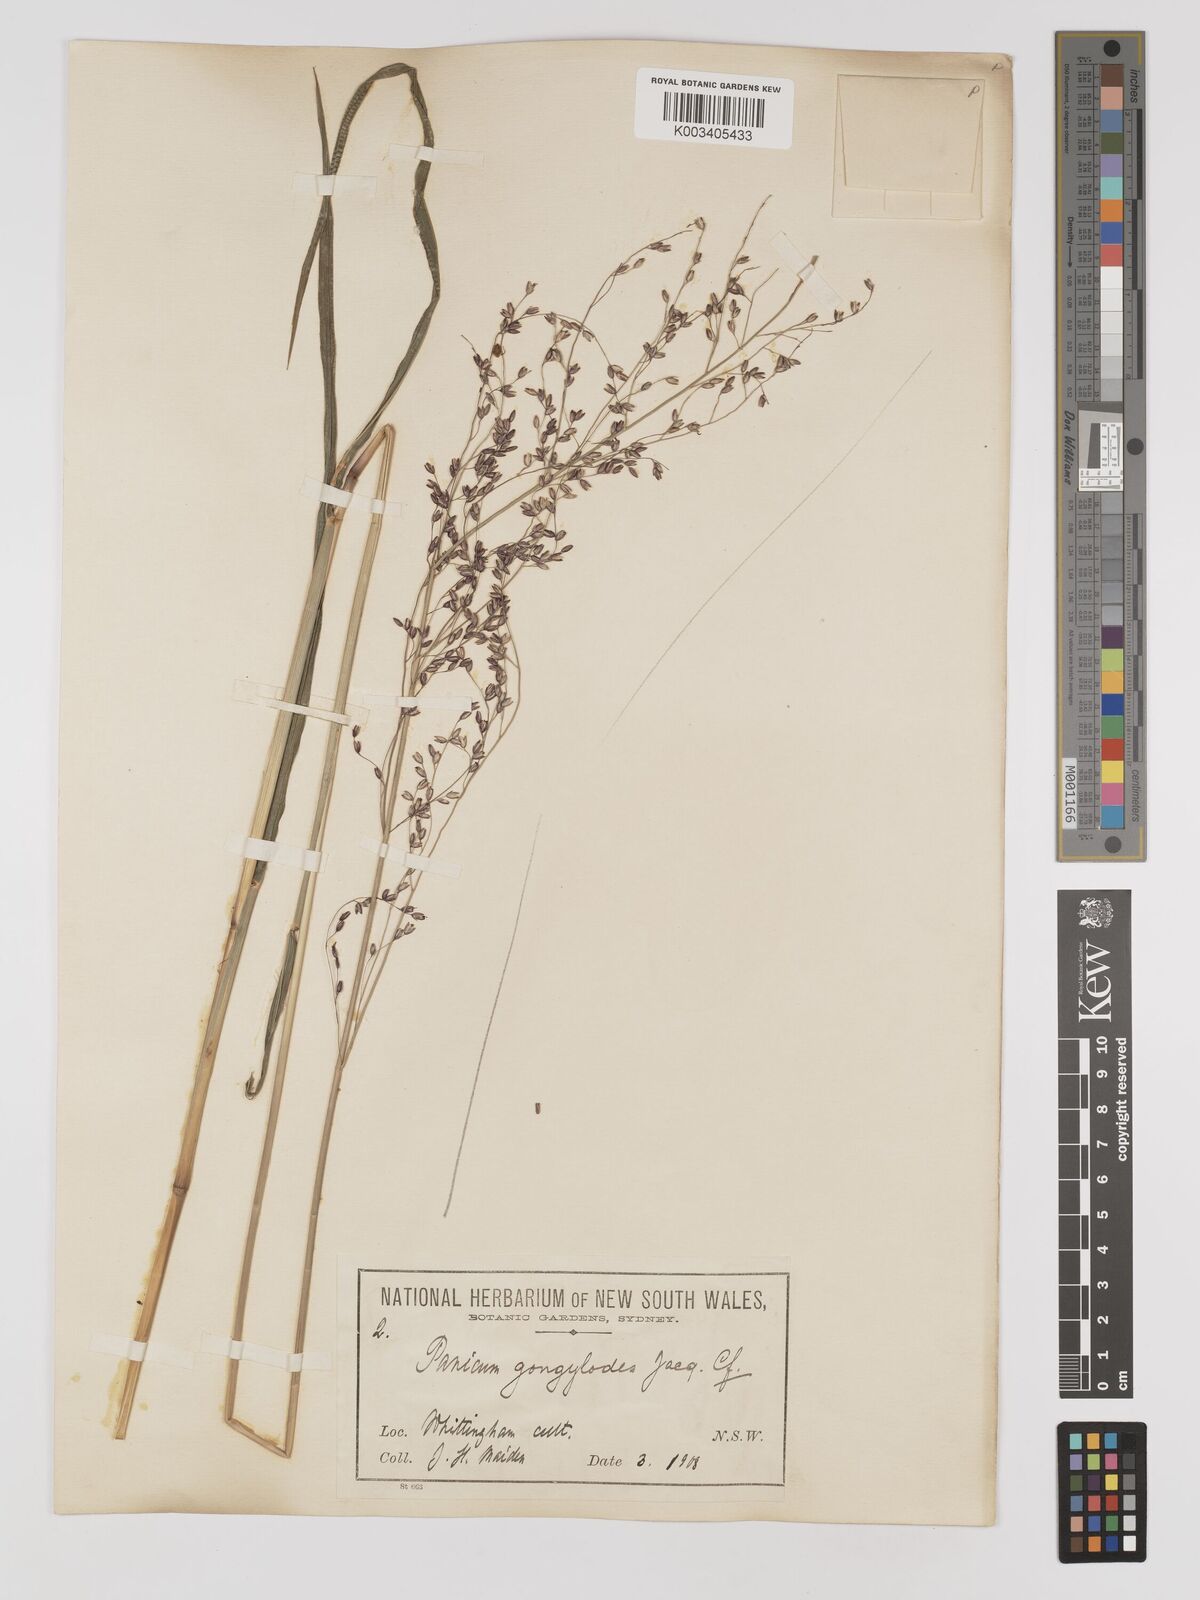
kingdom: Plantae
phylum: Tracheophyta
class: Liliopsida
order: Poales
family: Poaceae
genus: Zuloagaea
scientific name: Zuloagaea bulbosa
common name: Canyon panic grass
